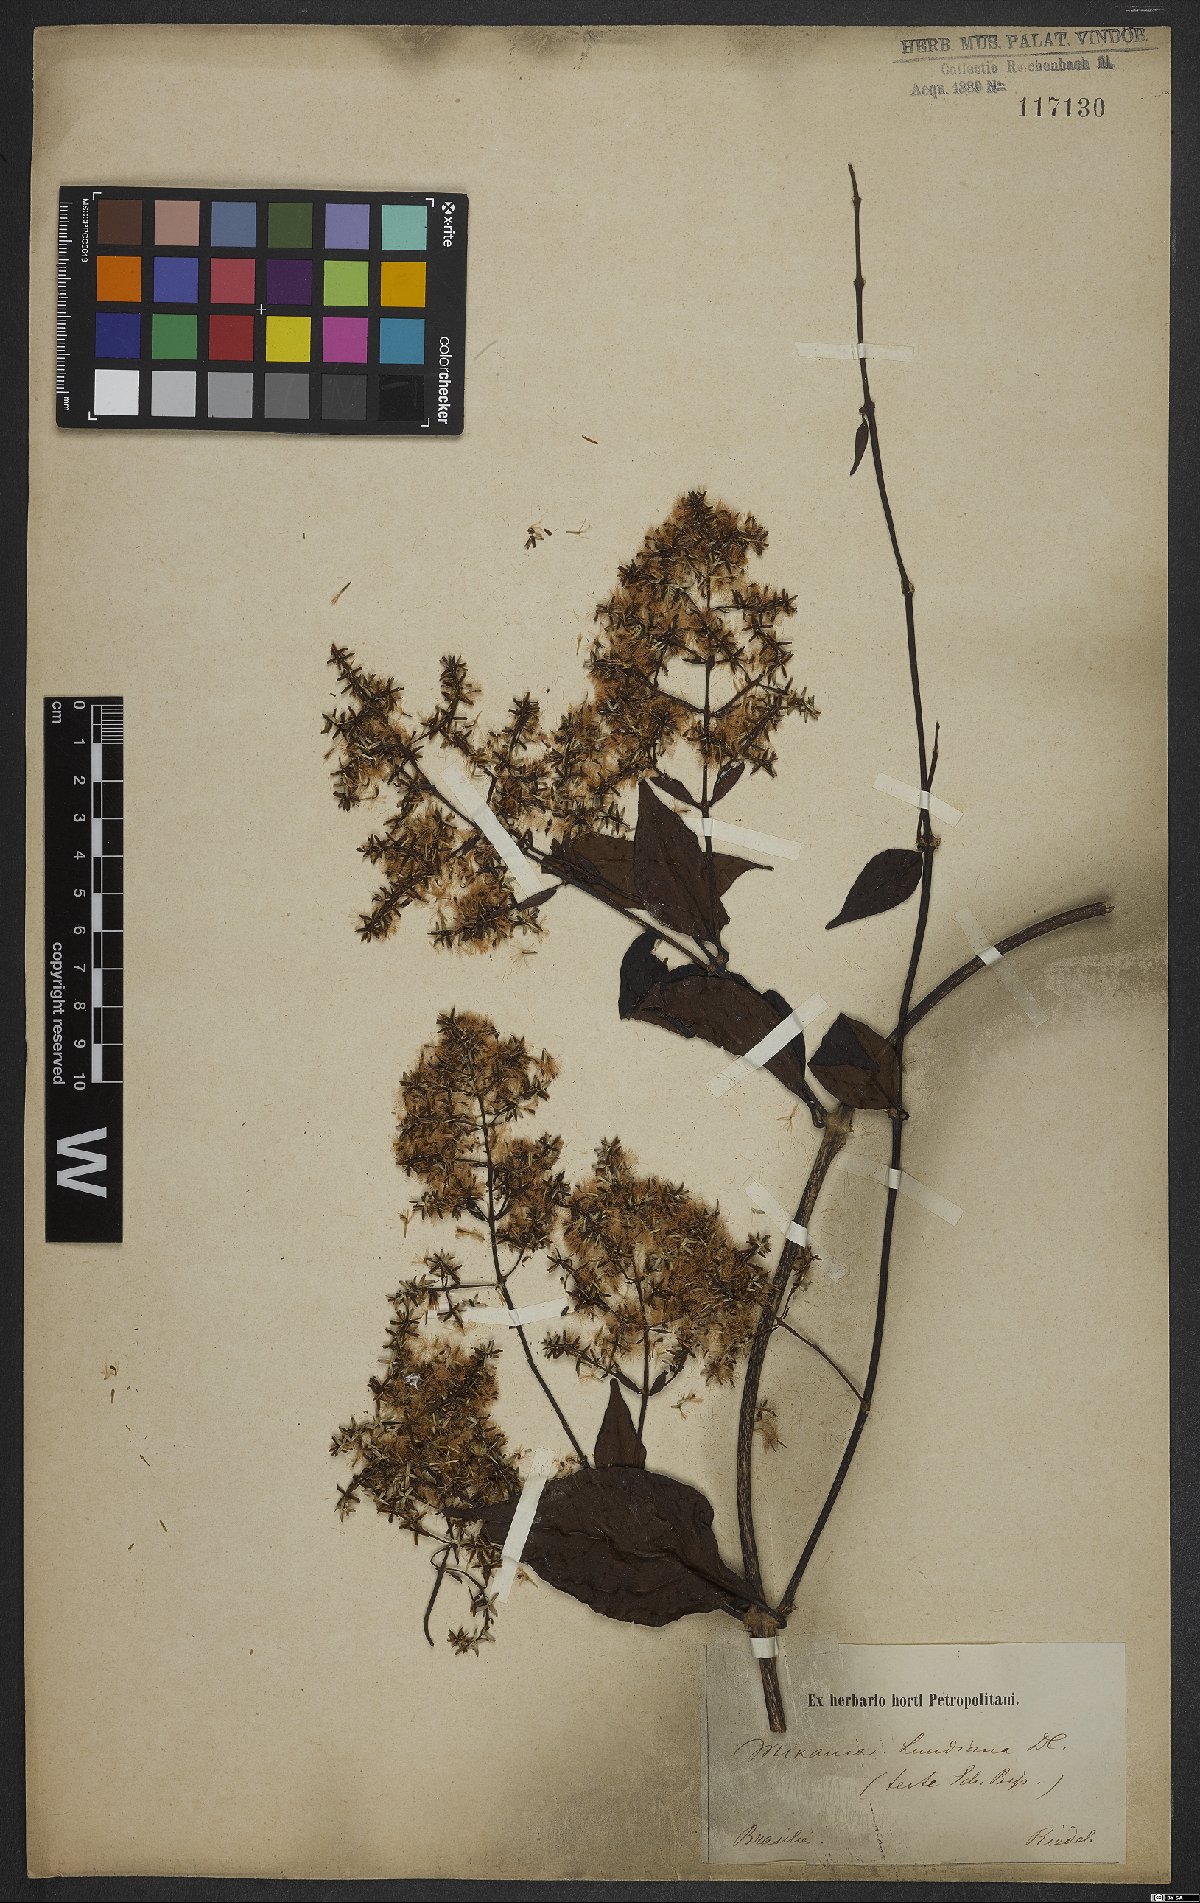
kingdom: Plantae
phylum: Tracheophyta
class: Magnoliopsida
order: Asterales
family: Asteraceae
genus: Mikania
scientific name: Mikania lundiana
